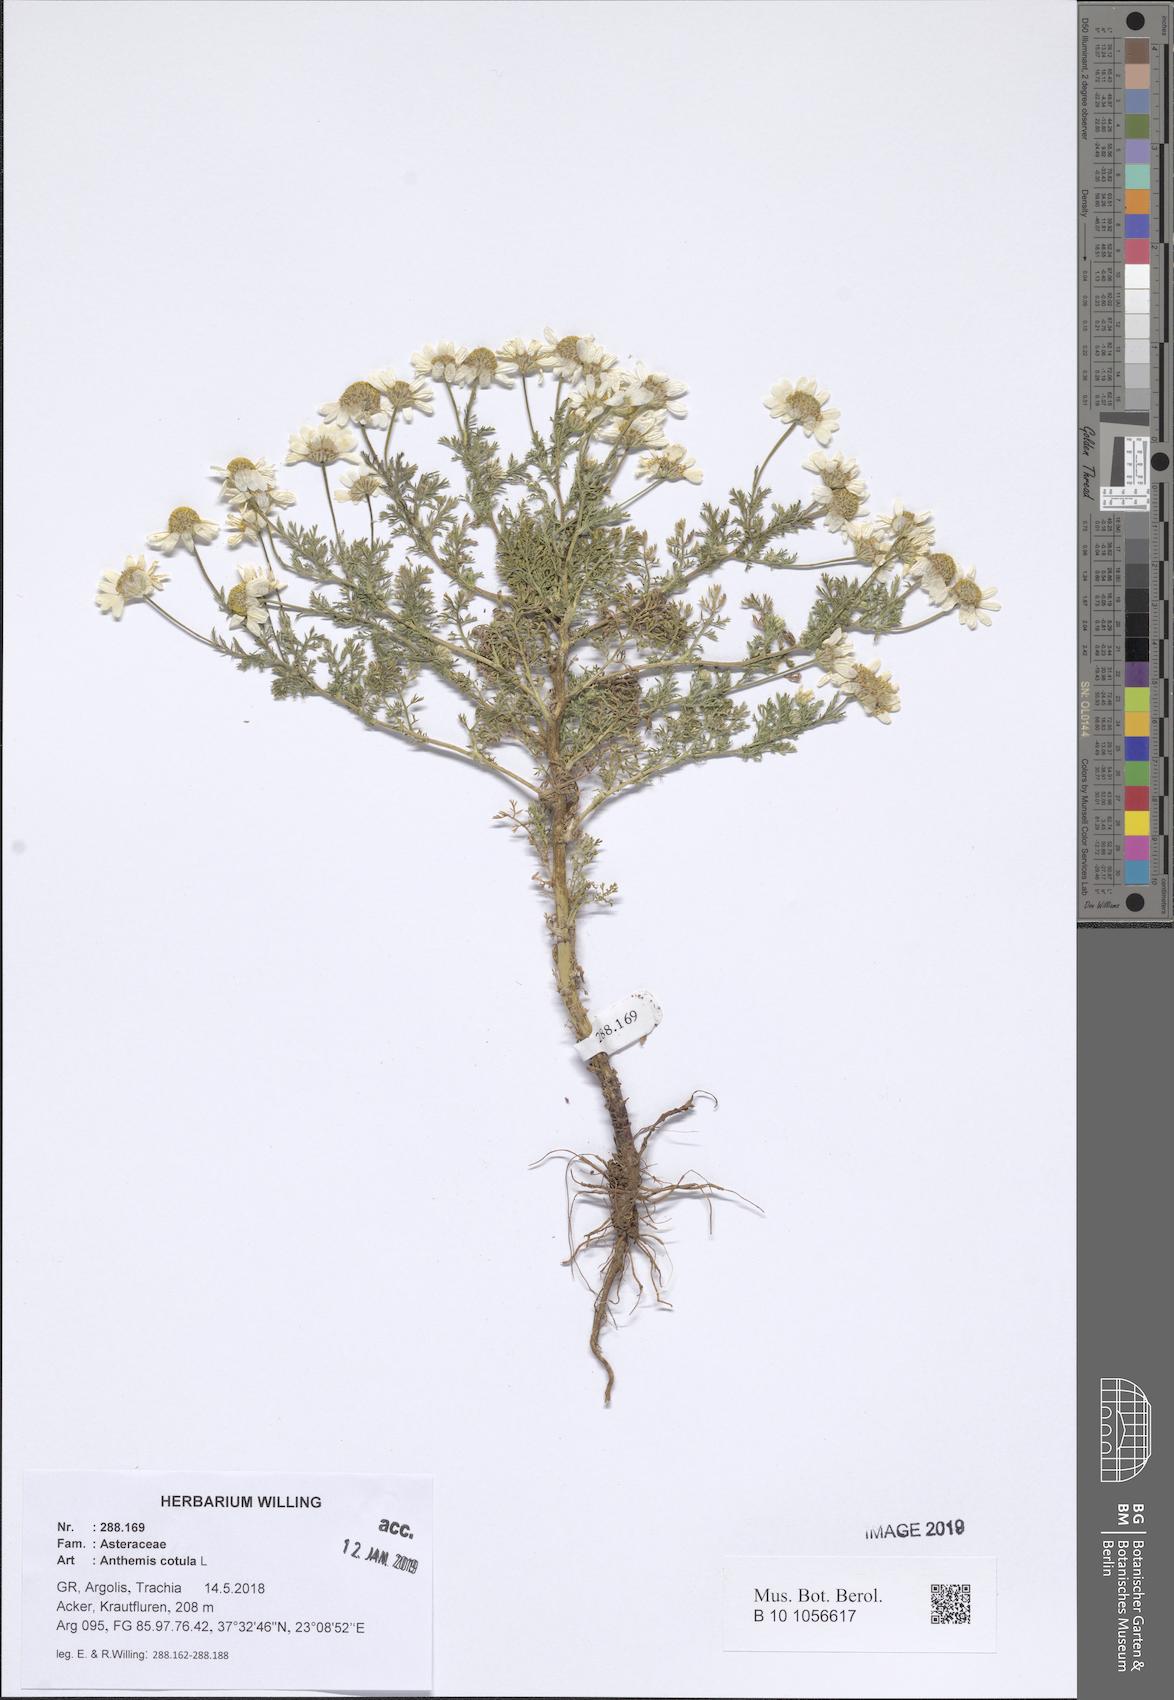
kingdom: Plantae
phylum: Tracheophyta
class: Magnoliopsida
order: Asterales
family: Asteraceae
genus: Anthemis
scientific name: Anthemis cotula
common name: Stinking chamomile
